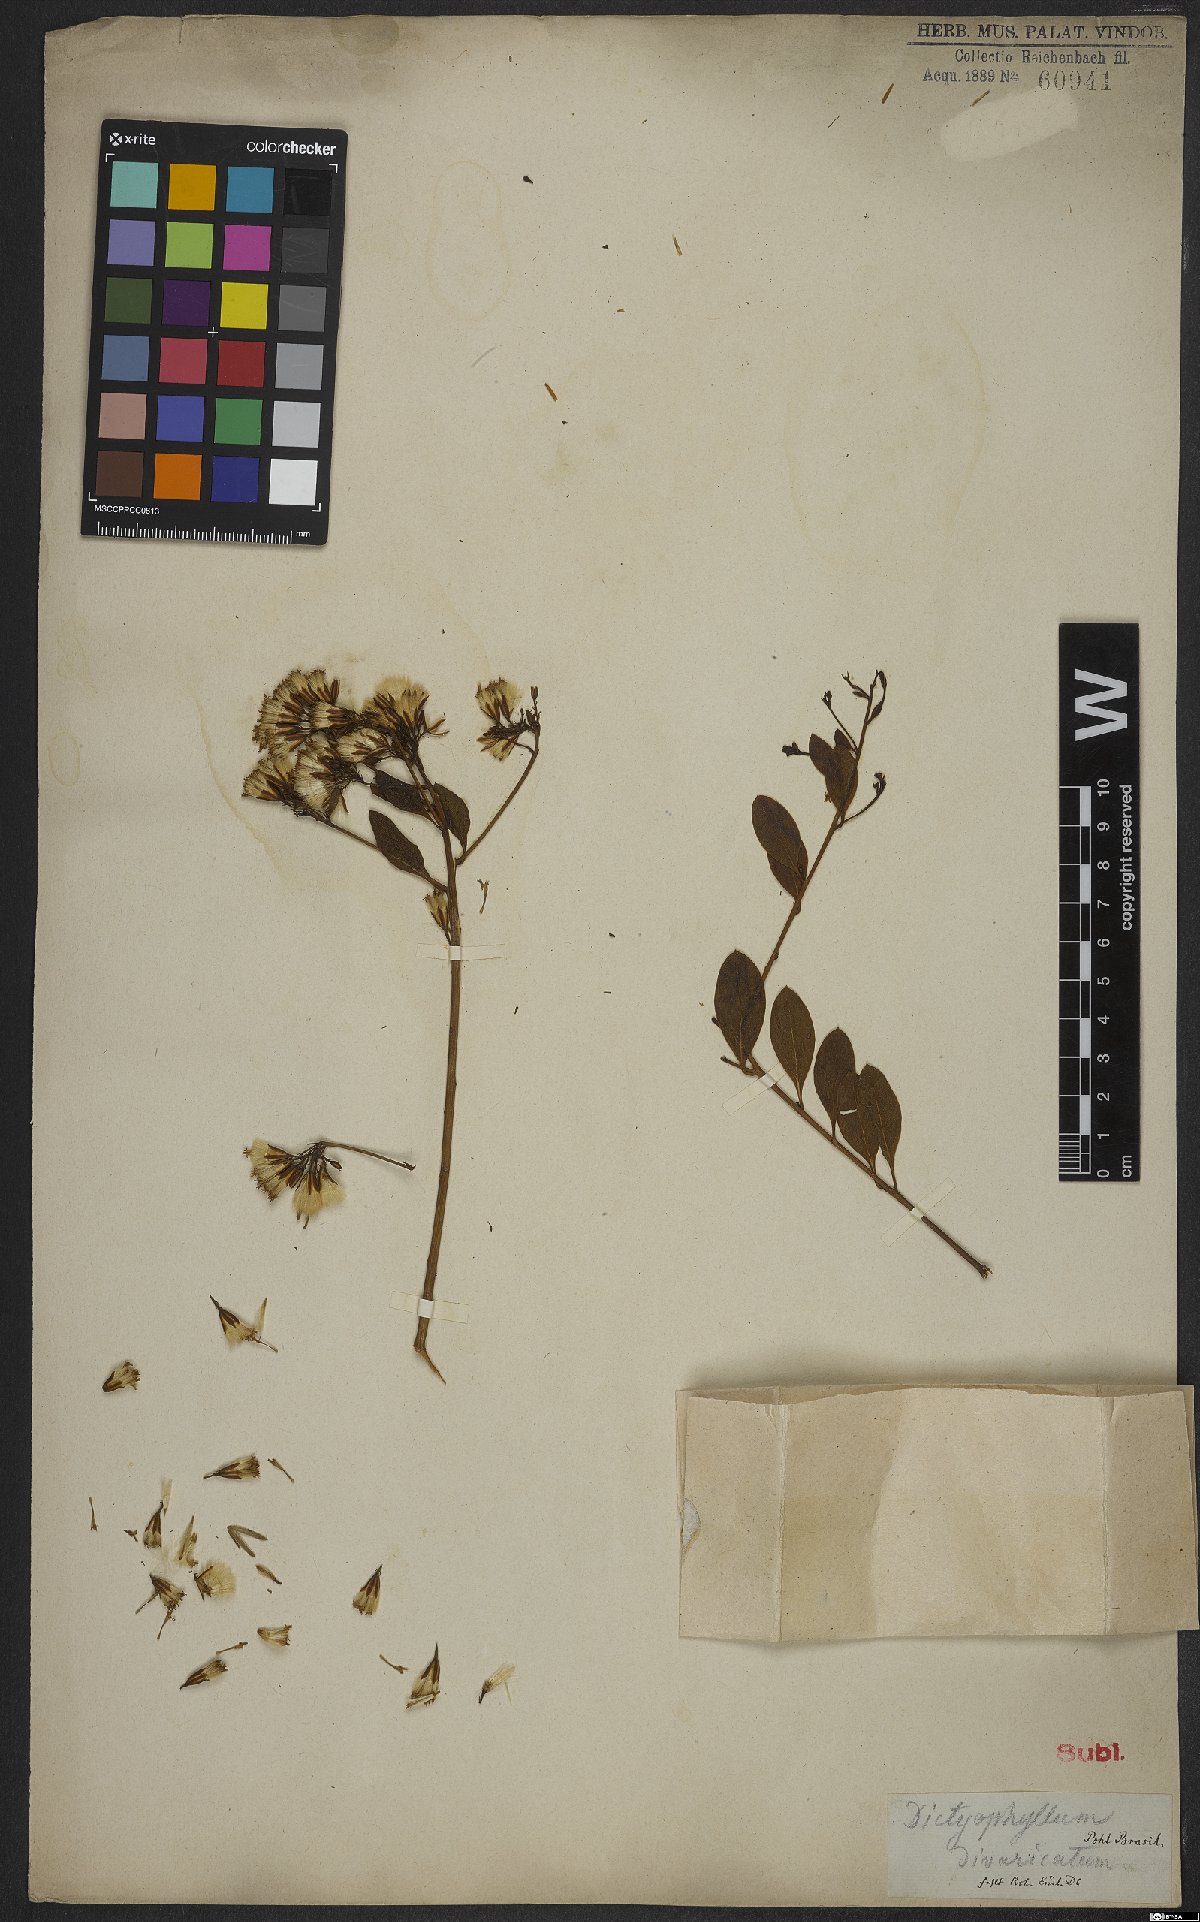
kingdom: Plantae
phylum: Tracheophyta
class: Magnoliopsida
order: Asterales
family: Asteraceae
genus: Trixis
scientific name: Trixis
